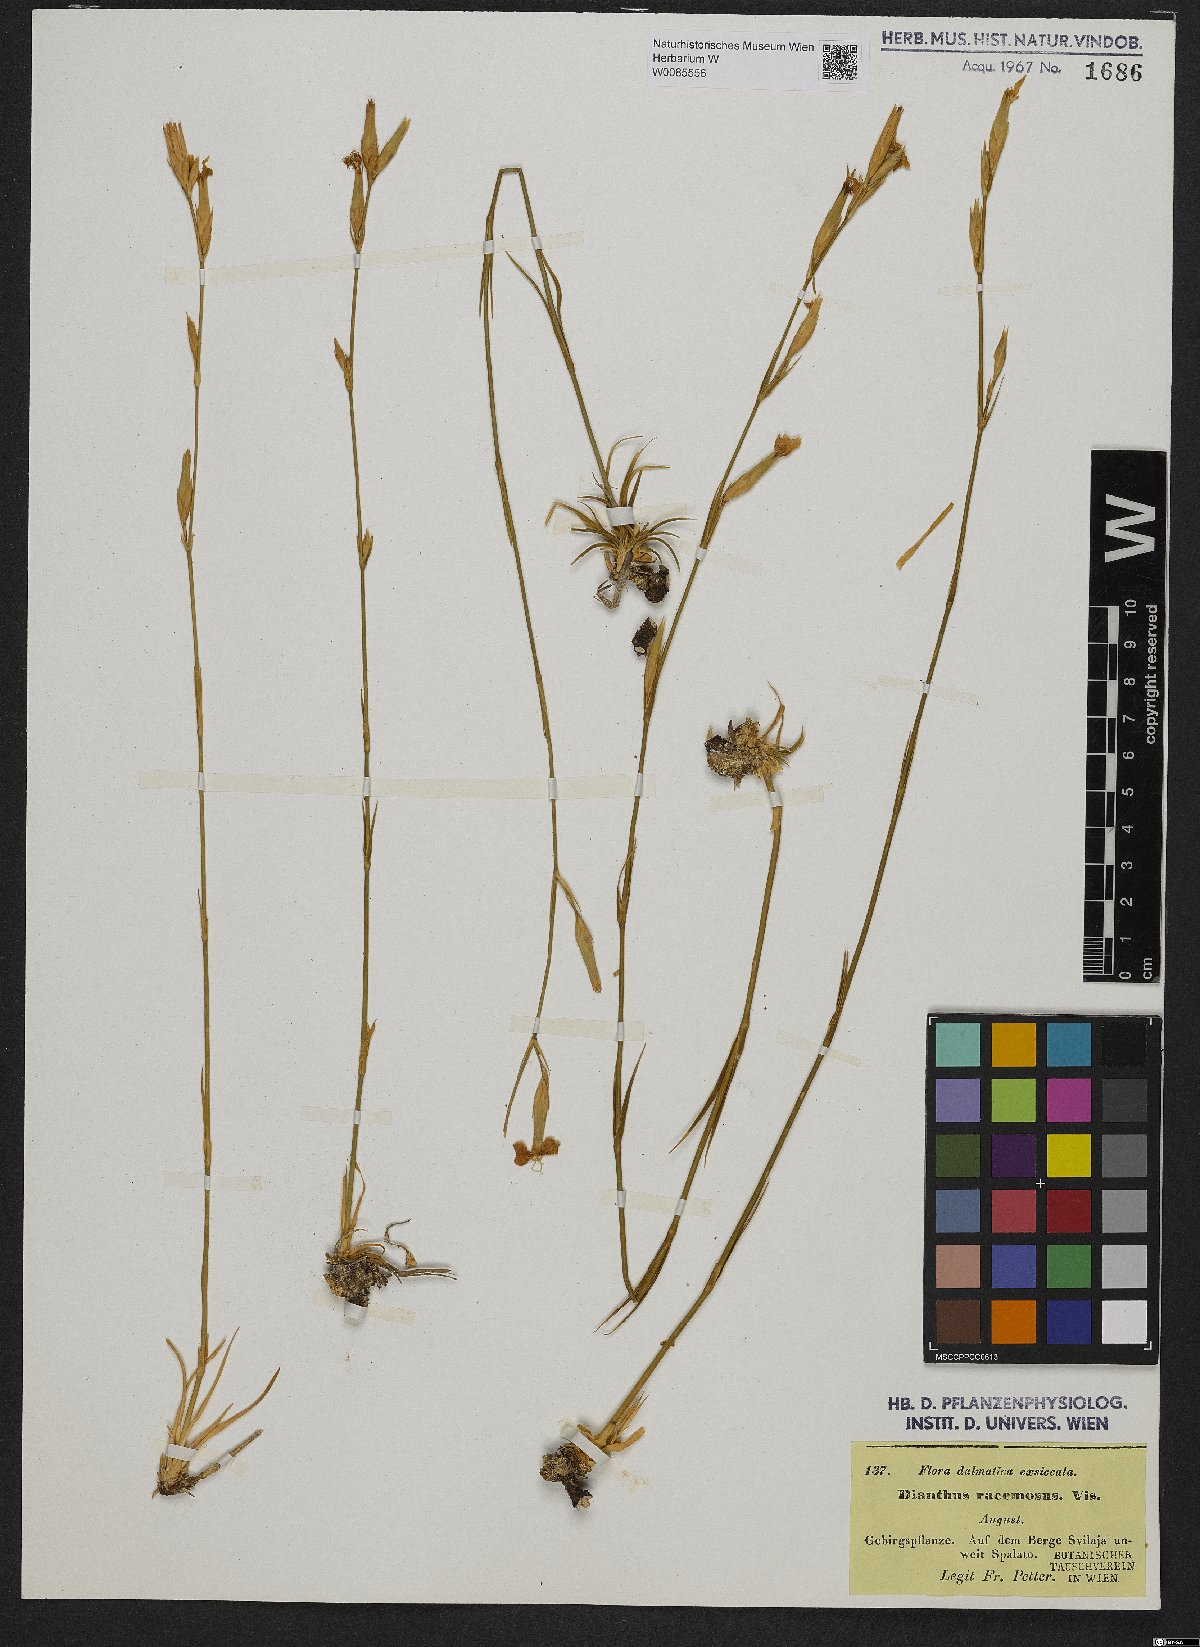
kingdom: Plantae
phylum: Tracheophyta
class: Magnoliopsida
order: Caryophyllales
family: Caryophyllaceae
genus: Dianthus
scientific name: Dianthus ciliatus
